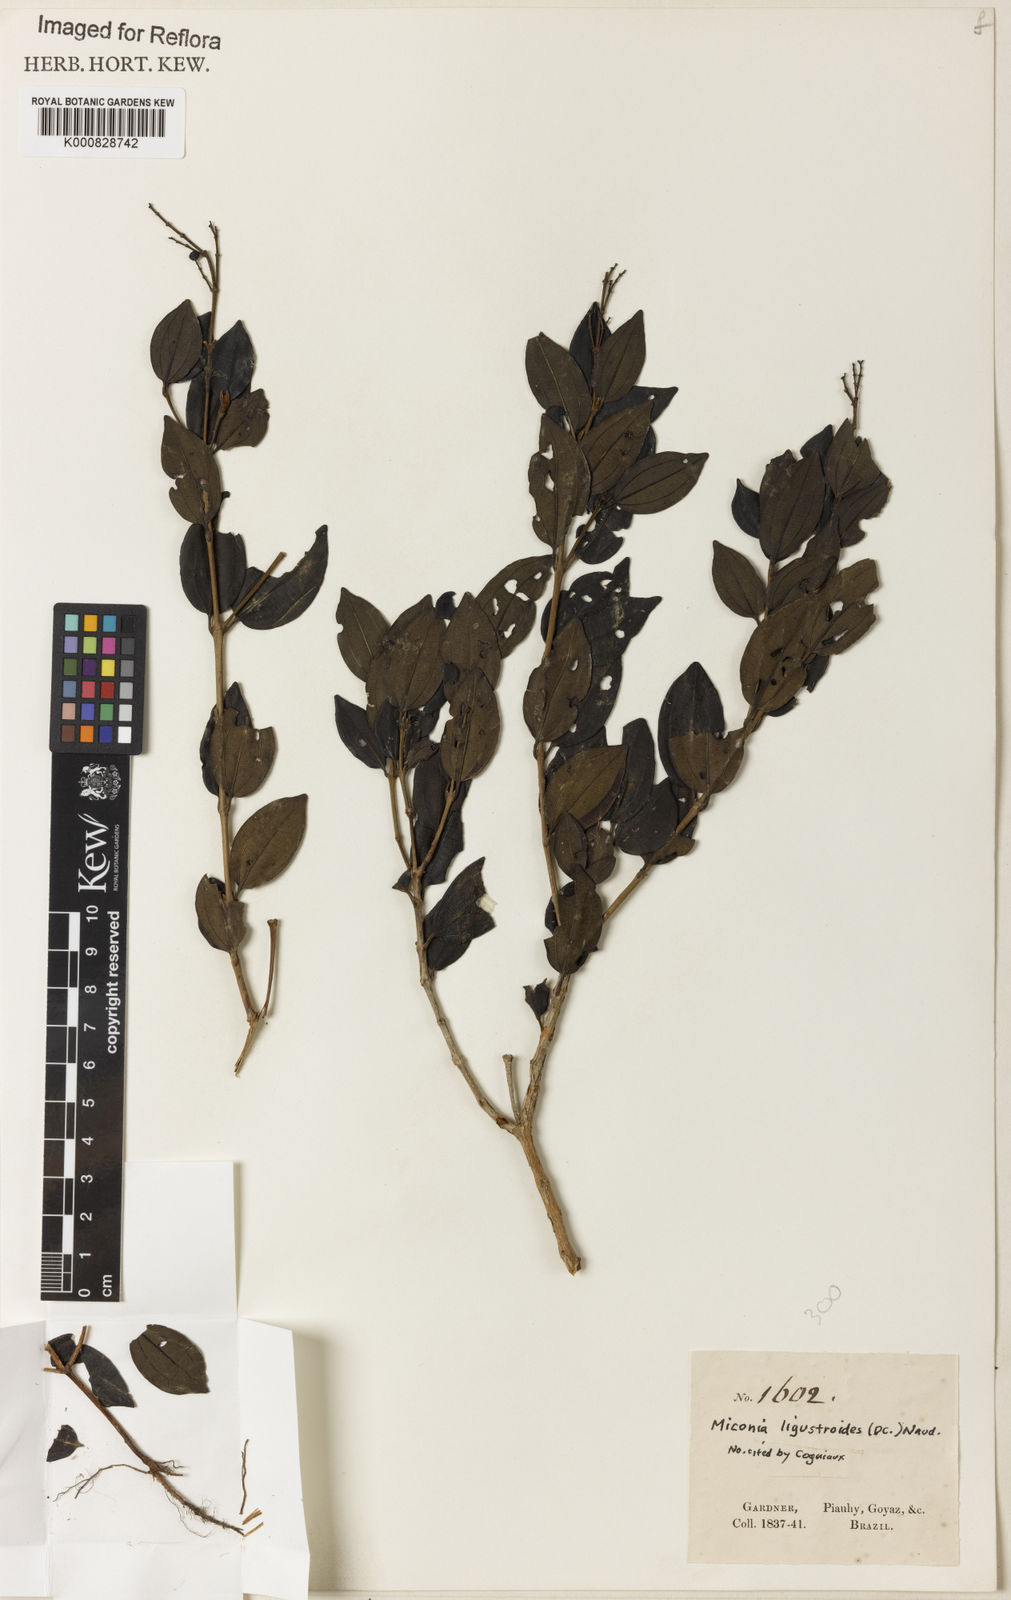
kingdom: Plantae
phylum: Tracheophyta
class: Magnoliopsida
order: Myrtales
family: Melastomataceae
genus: Miconia
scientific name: Miconia ligustroides
